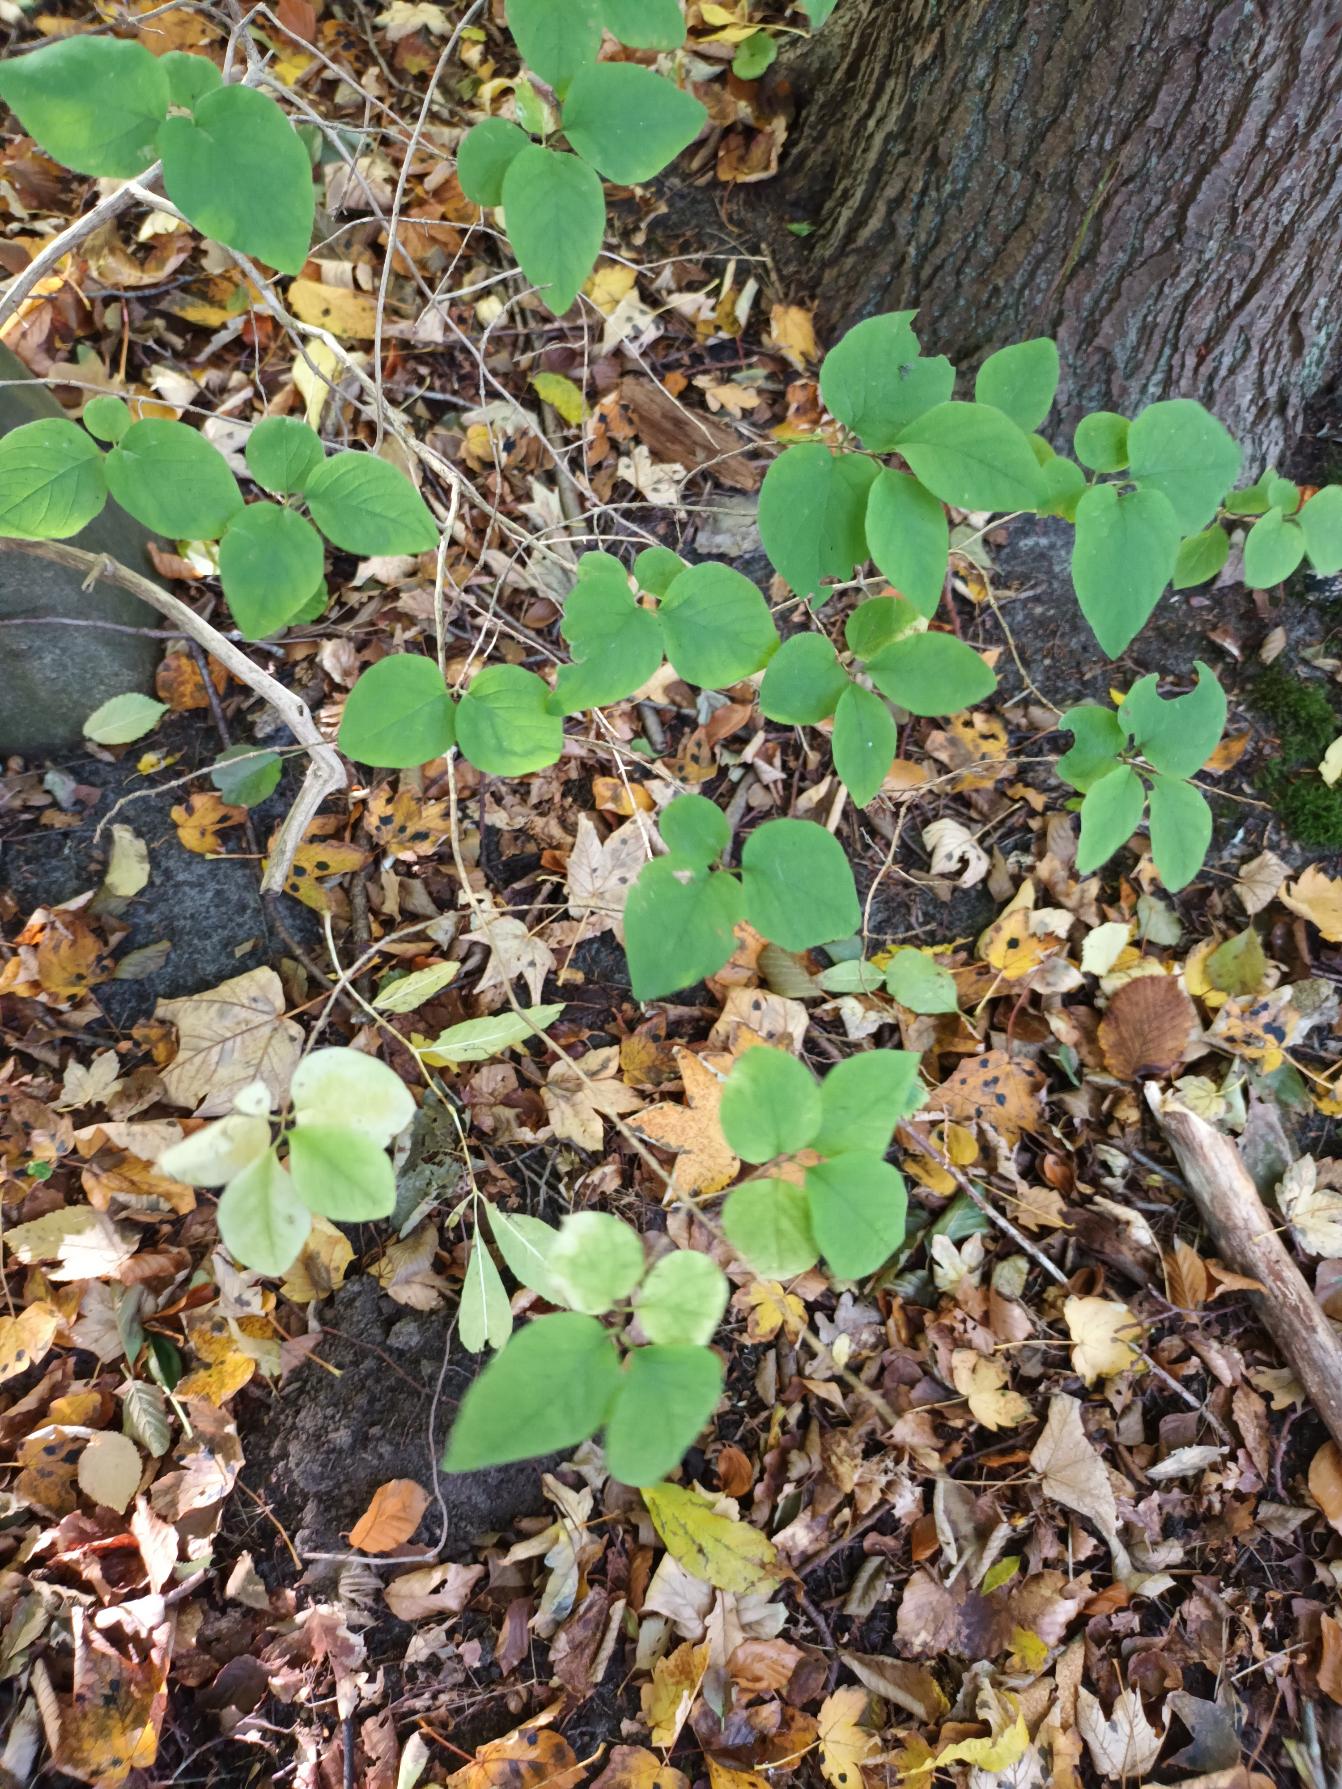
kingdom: Plantae
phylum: Tracheophyta
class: Magnoliopsida
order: Dipsacales
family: Caprifoliaceae
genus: Lonicera
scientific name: Lonicera xylosteum
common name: Dunet gedeblad
